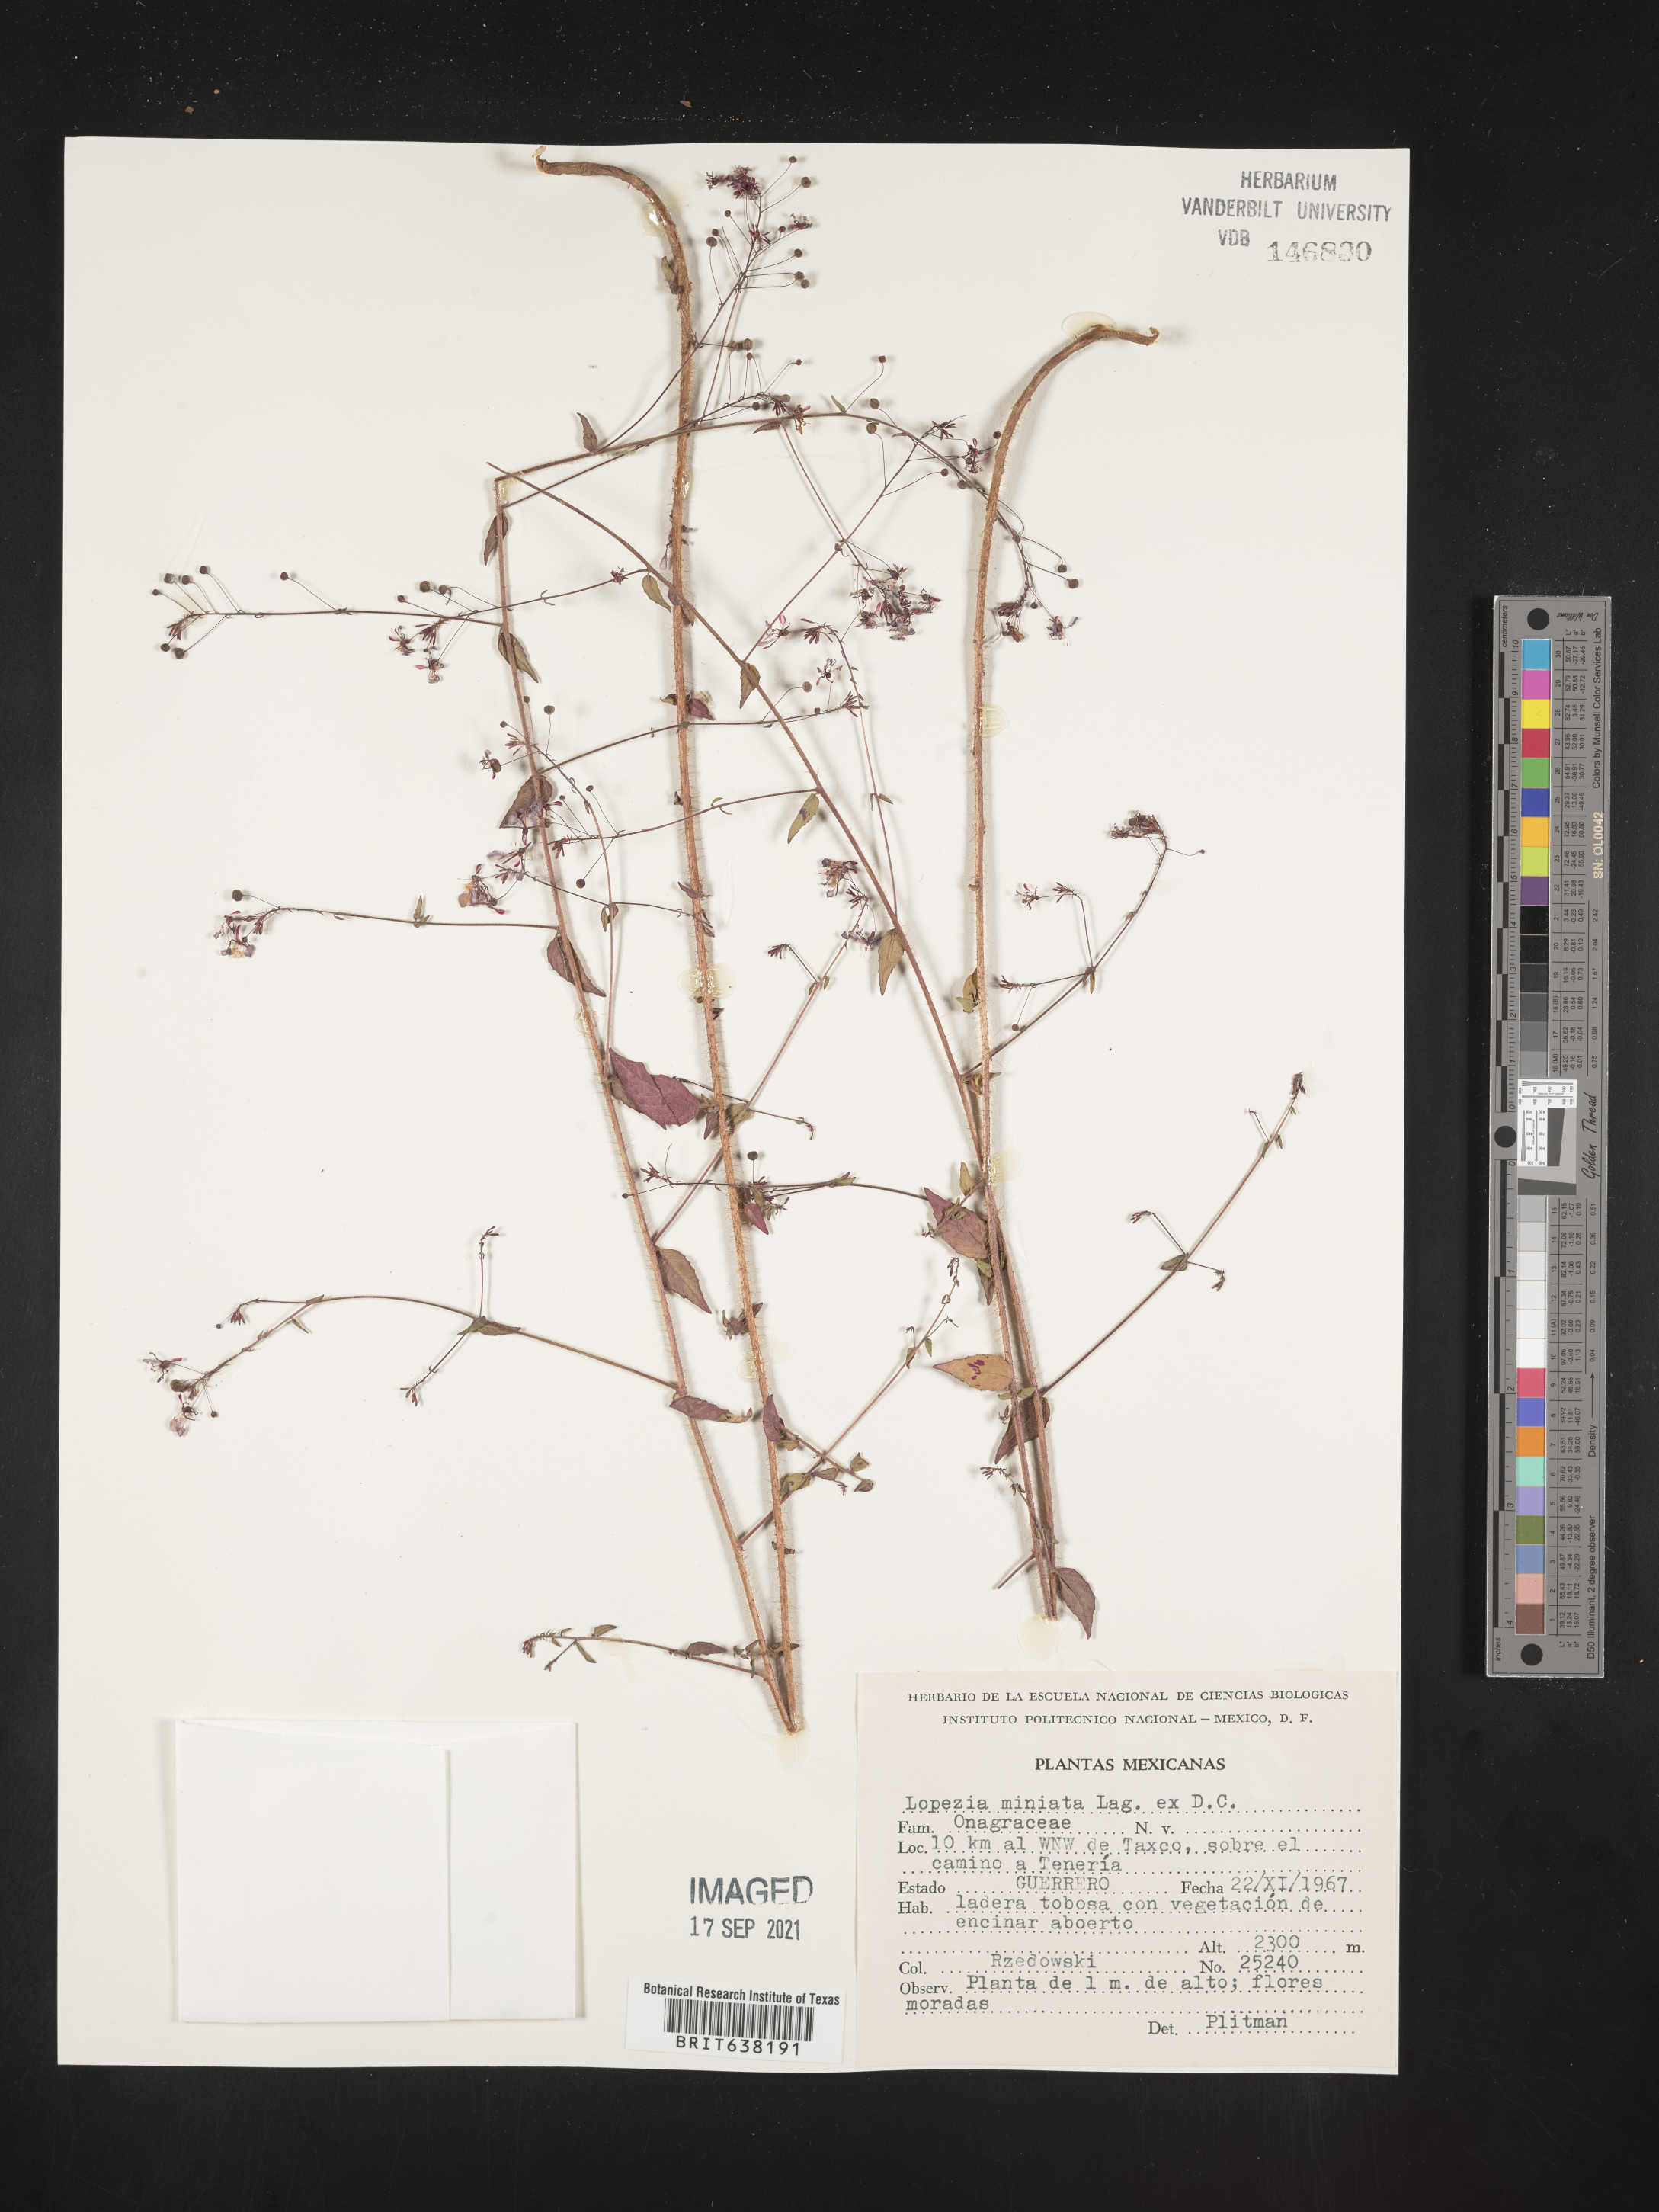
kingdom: Plantae
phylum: Tracheophyta
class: Magnoliopsida
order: Myrtales
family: Onagraceae
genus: Lopezia
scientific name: Lopezia
